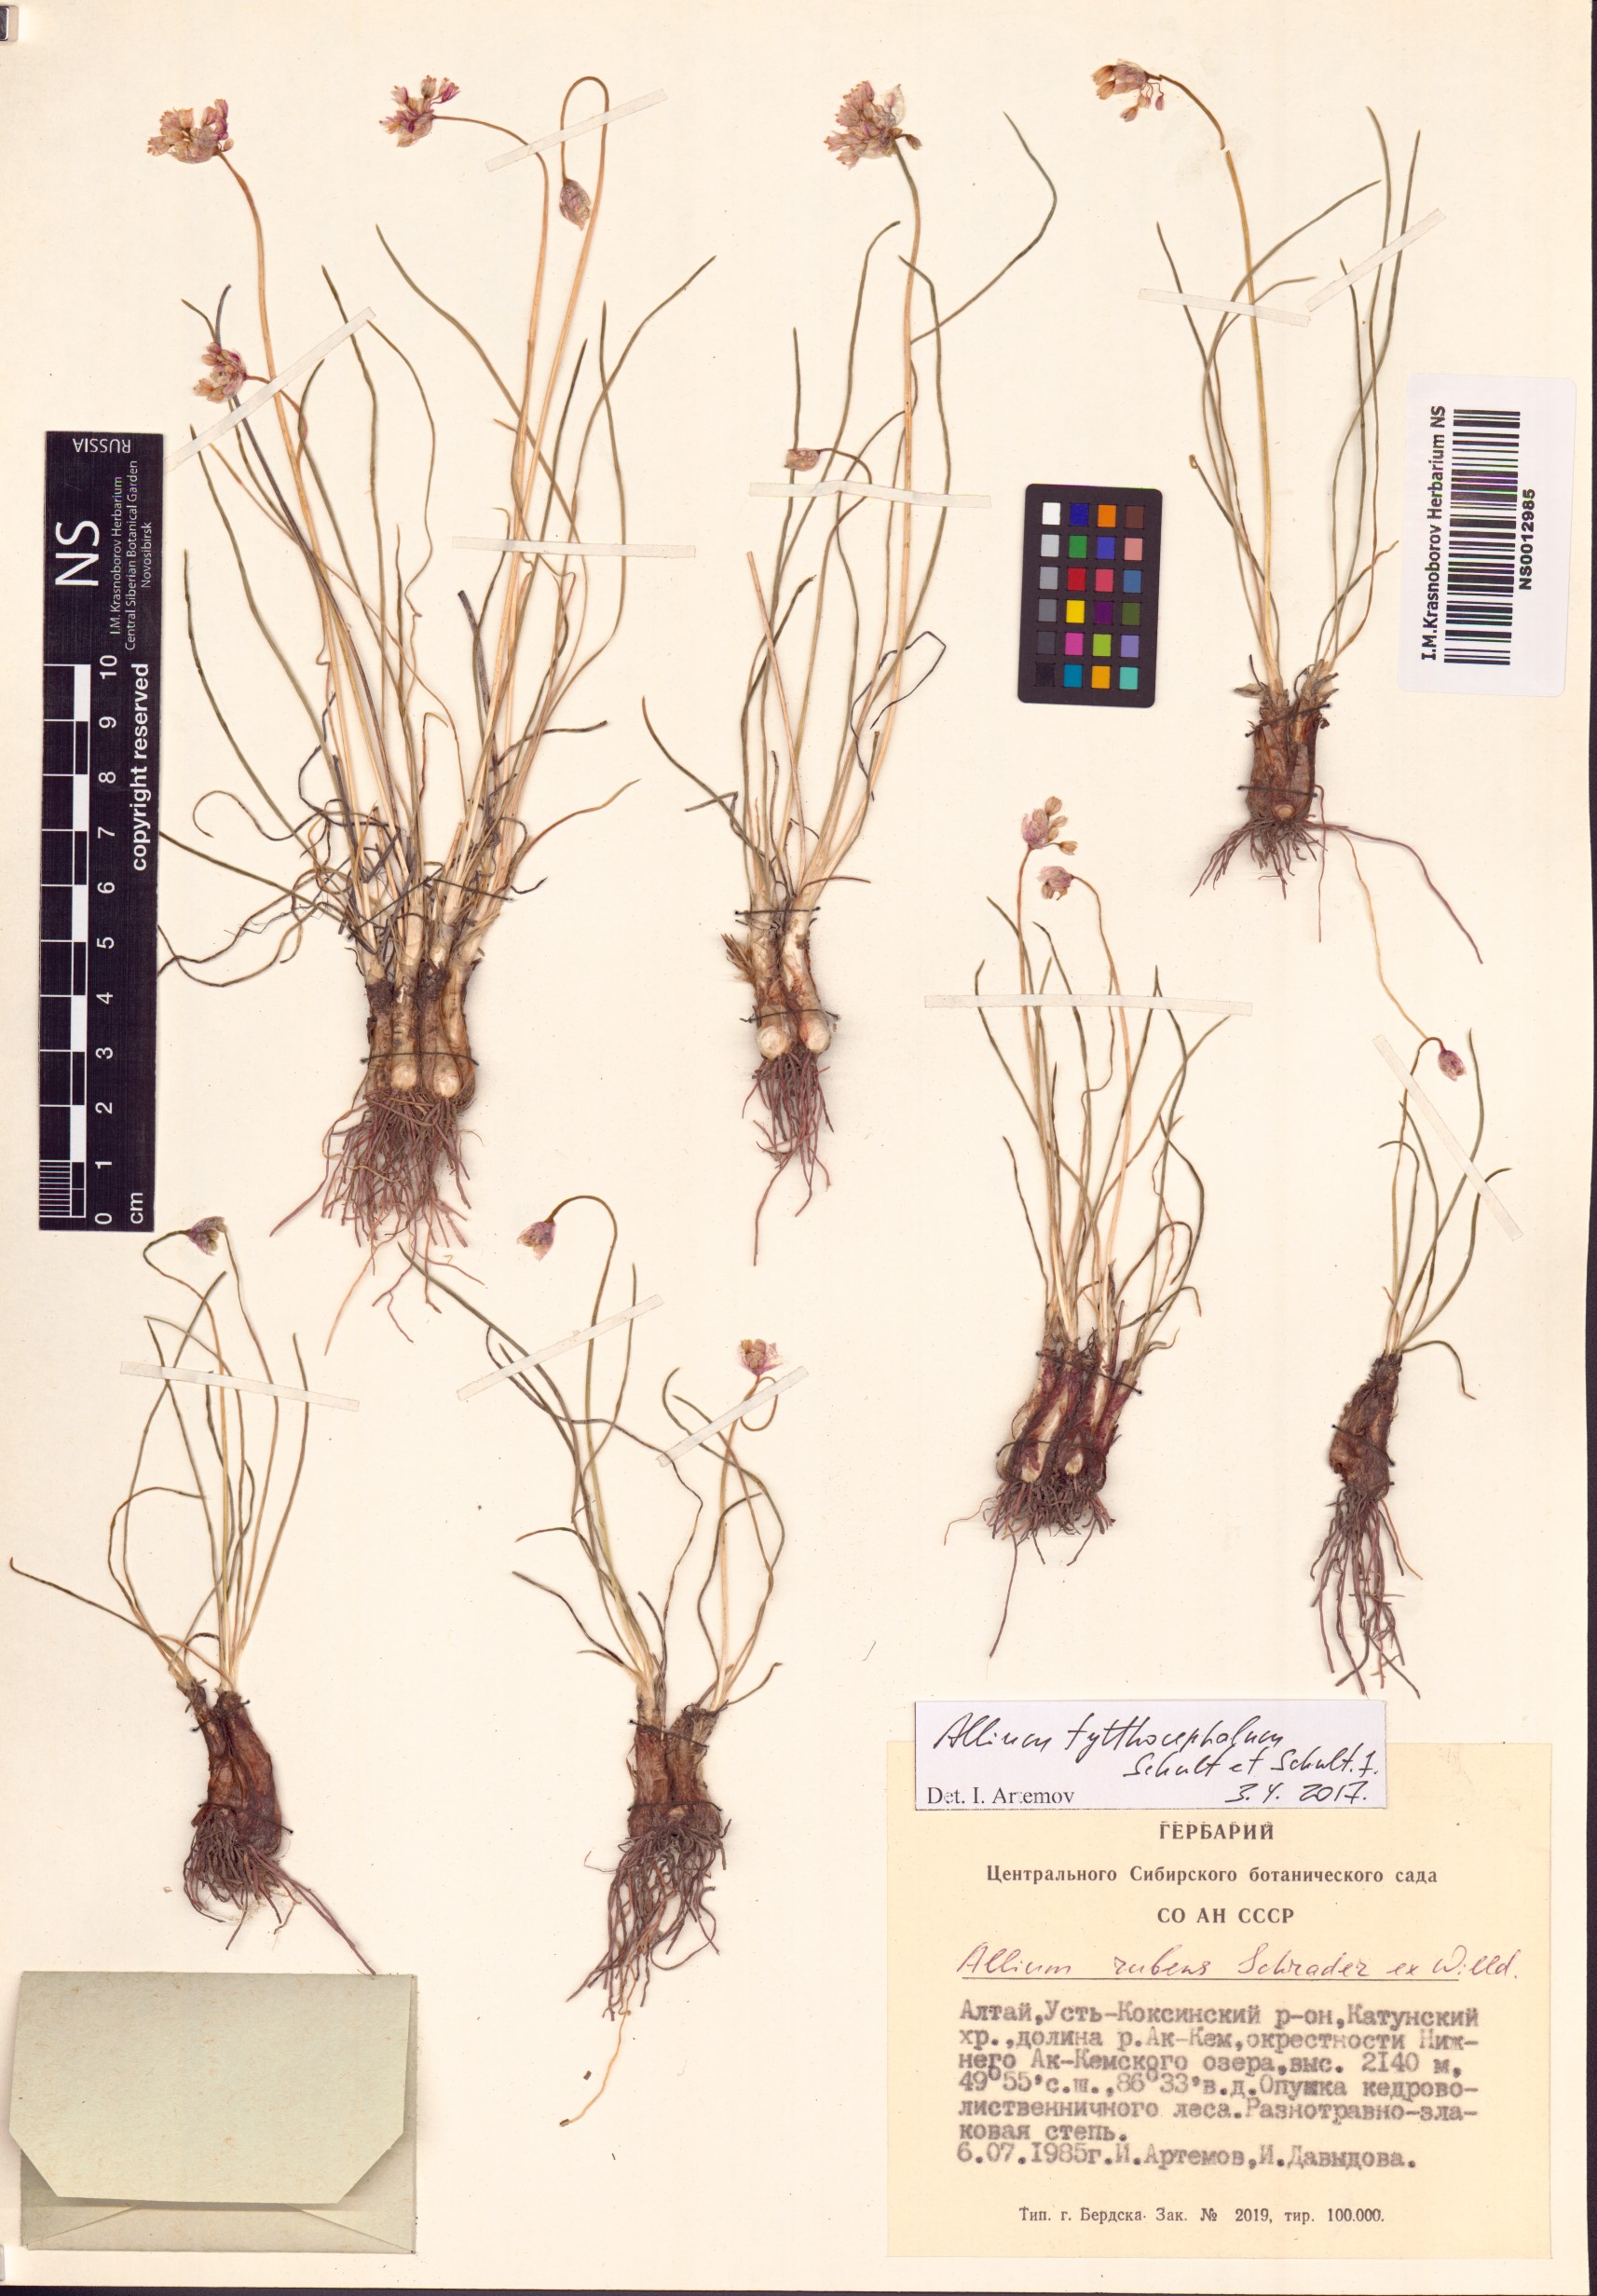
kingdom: Plantae
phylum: Tracheophyta
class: Liliopsida
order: Asparagales
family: Amaryllidaceae
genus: Allium
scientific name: Allium tytthocephalum
